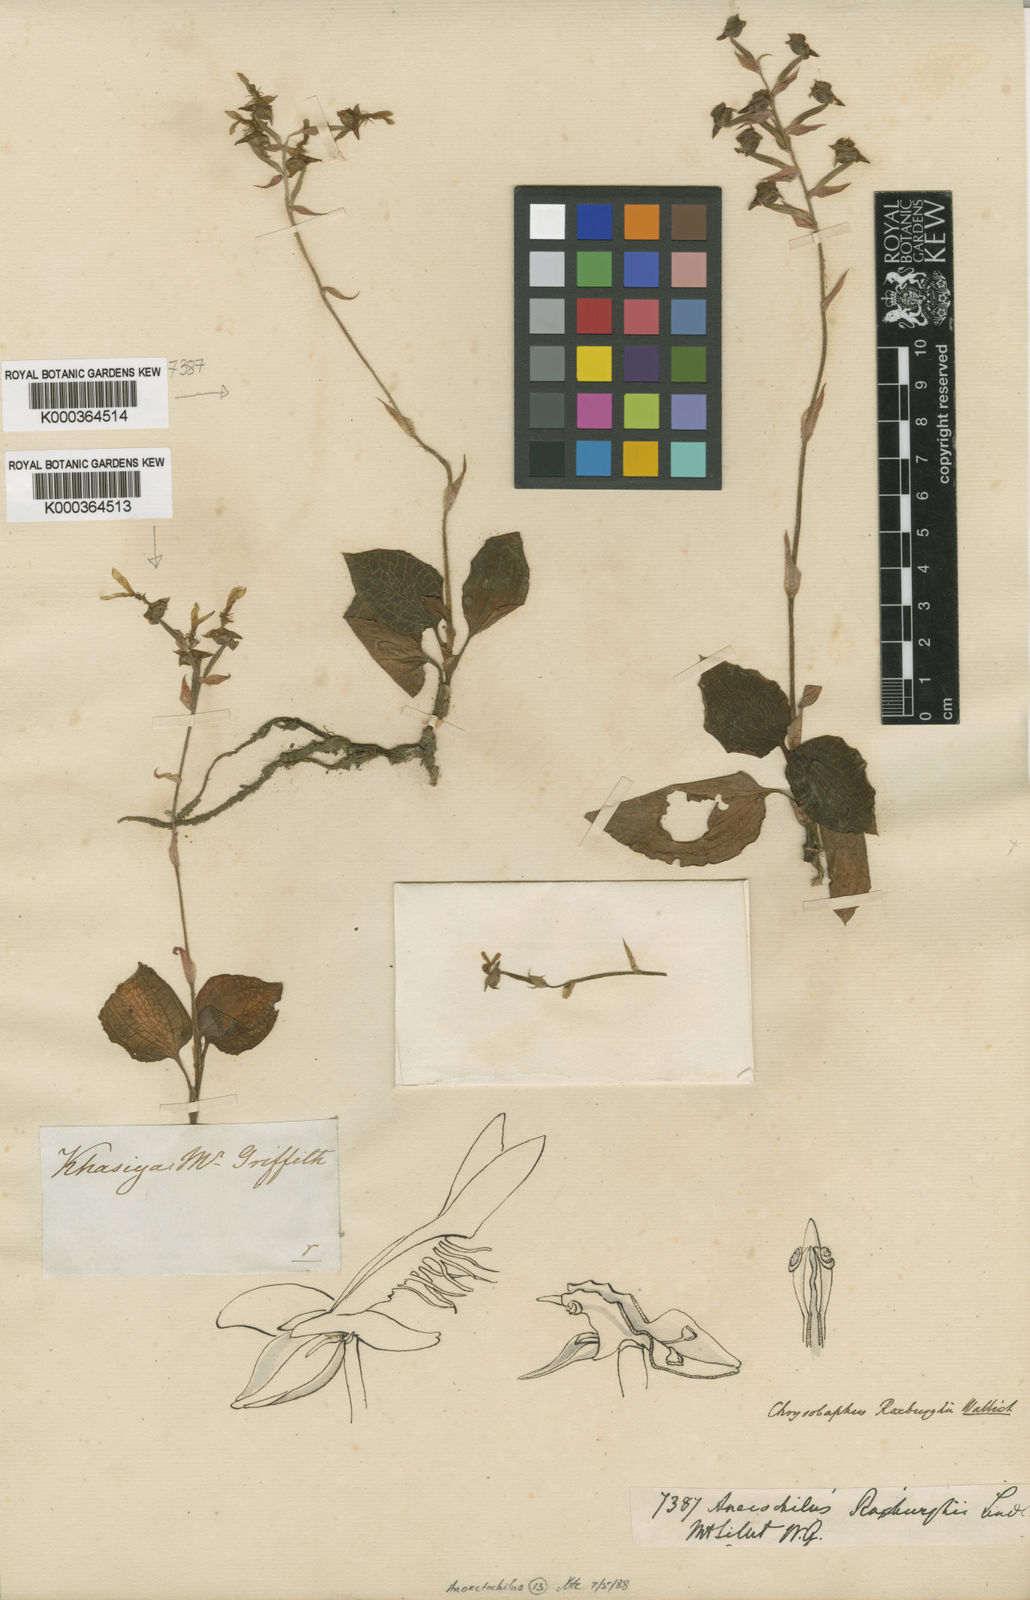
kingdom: Plantae
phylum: Tracheophyta
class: Liliopsida
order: Asparagales
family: Orchidaceae
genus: Anoectochilus
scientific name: Anoectochilus roxburghii
